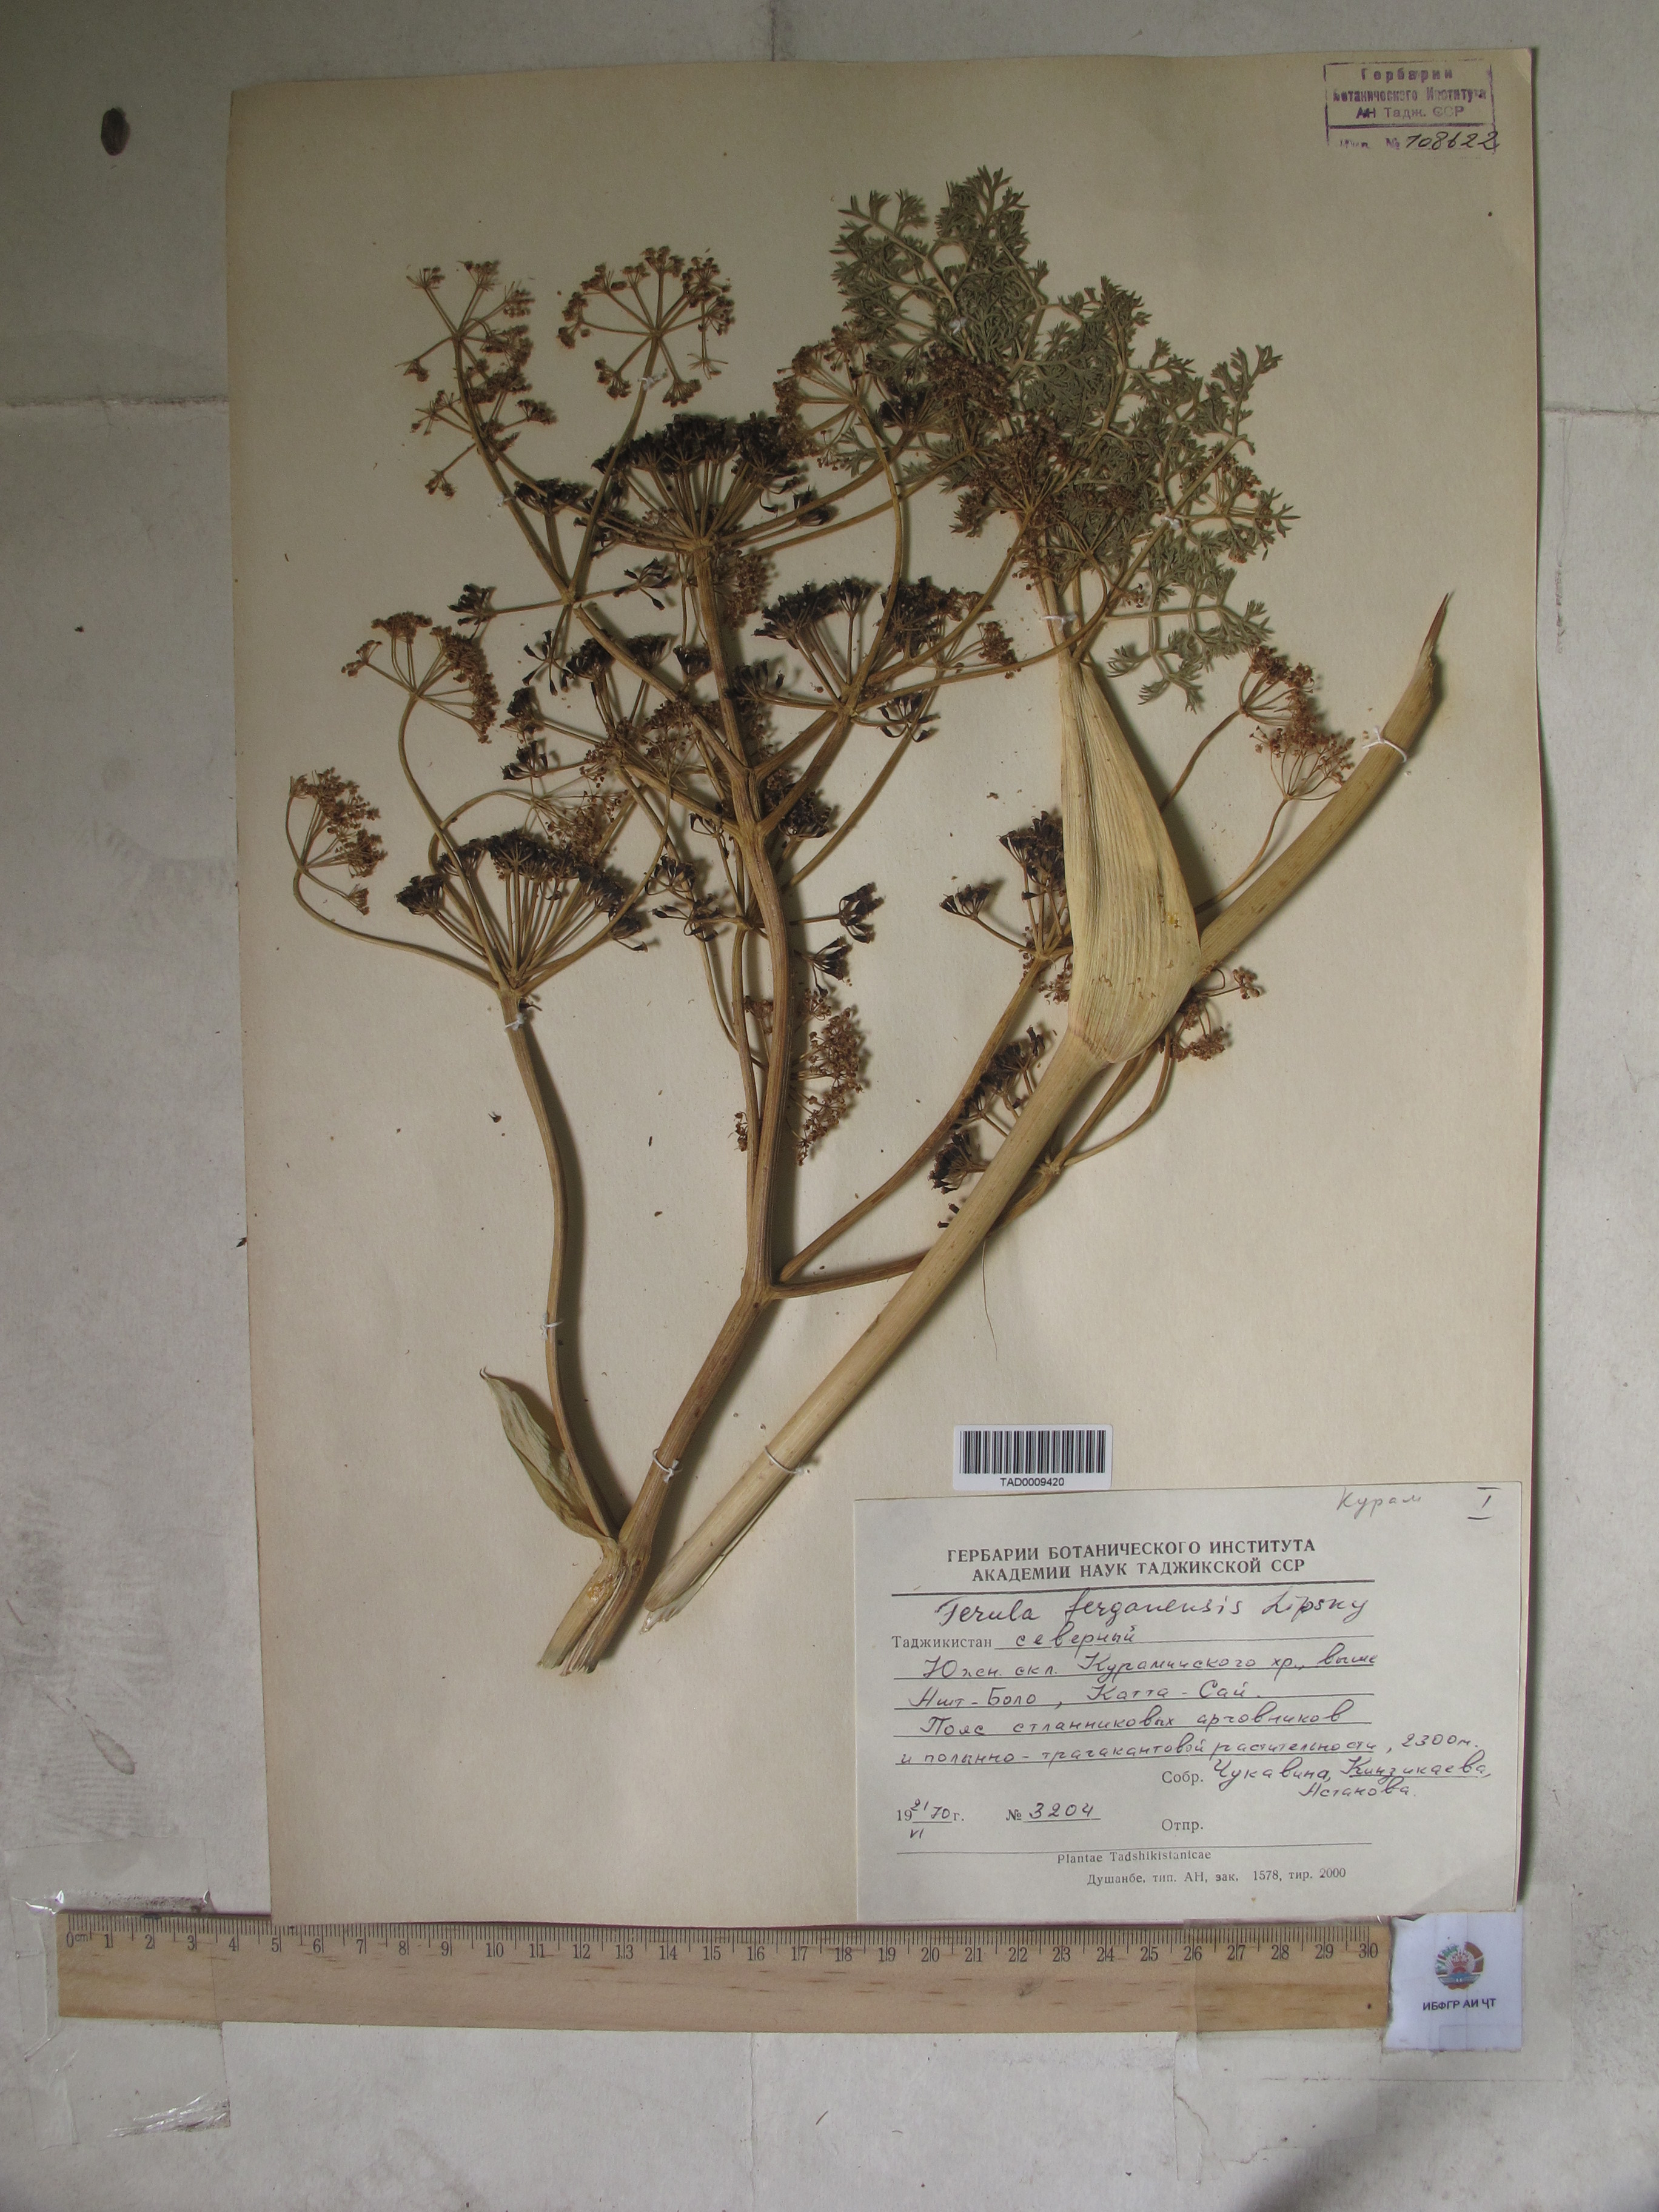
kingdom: Plantae
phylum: Tracheophyta
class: Magnoliopsida
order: Apiales
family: Apiaceae
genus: Ferula
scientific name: Ferula ferganensis
